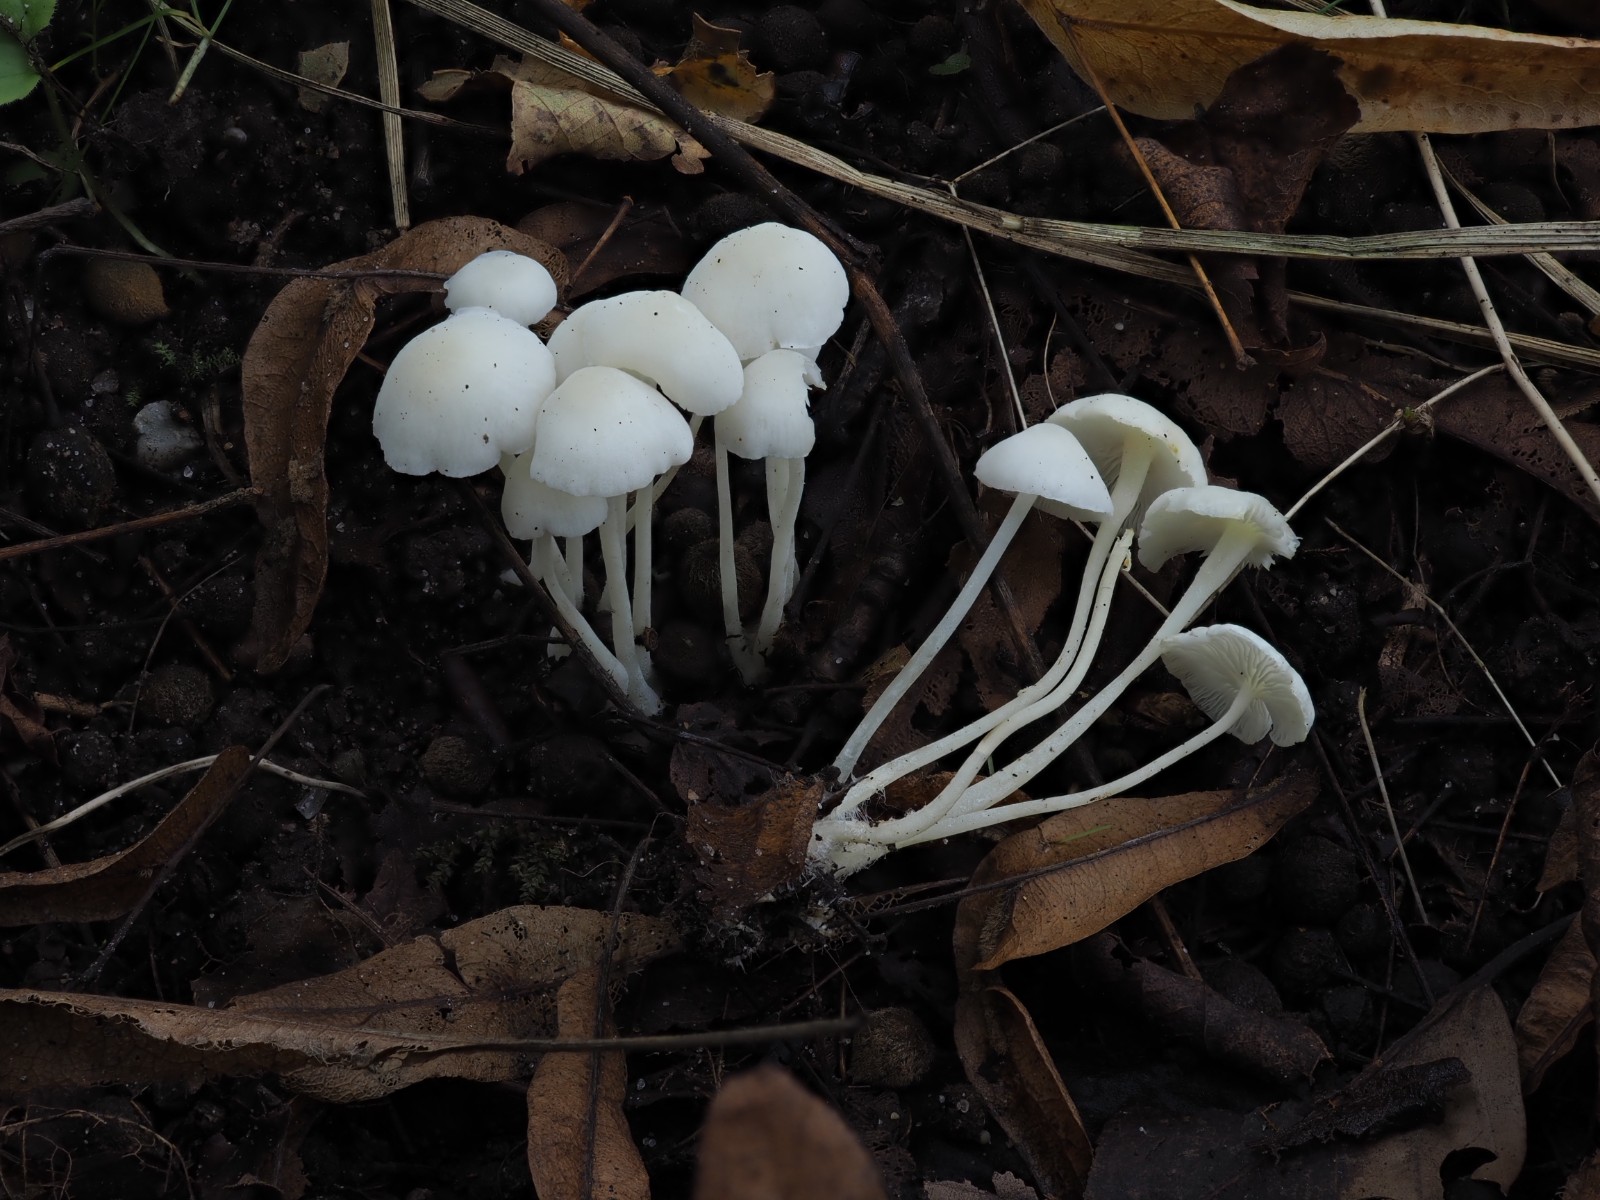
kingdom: Fungi
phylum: Basidiomycota
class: Agaricomycetes
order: Agaricales
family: Mycenaceae
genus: Hemimycena
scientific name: Hemimycena cucullata
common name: tætbladet huesvamp
